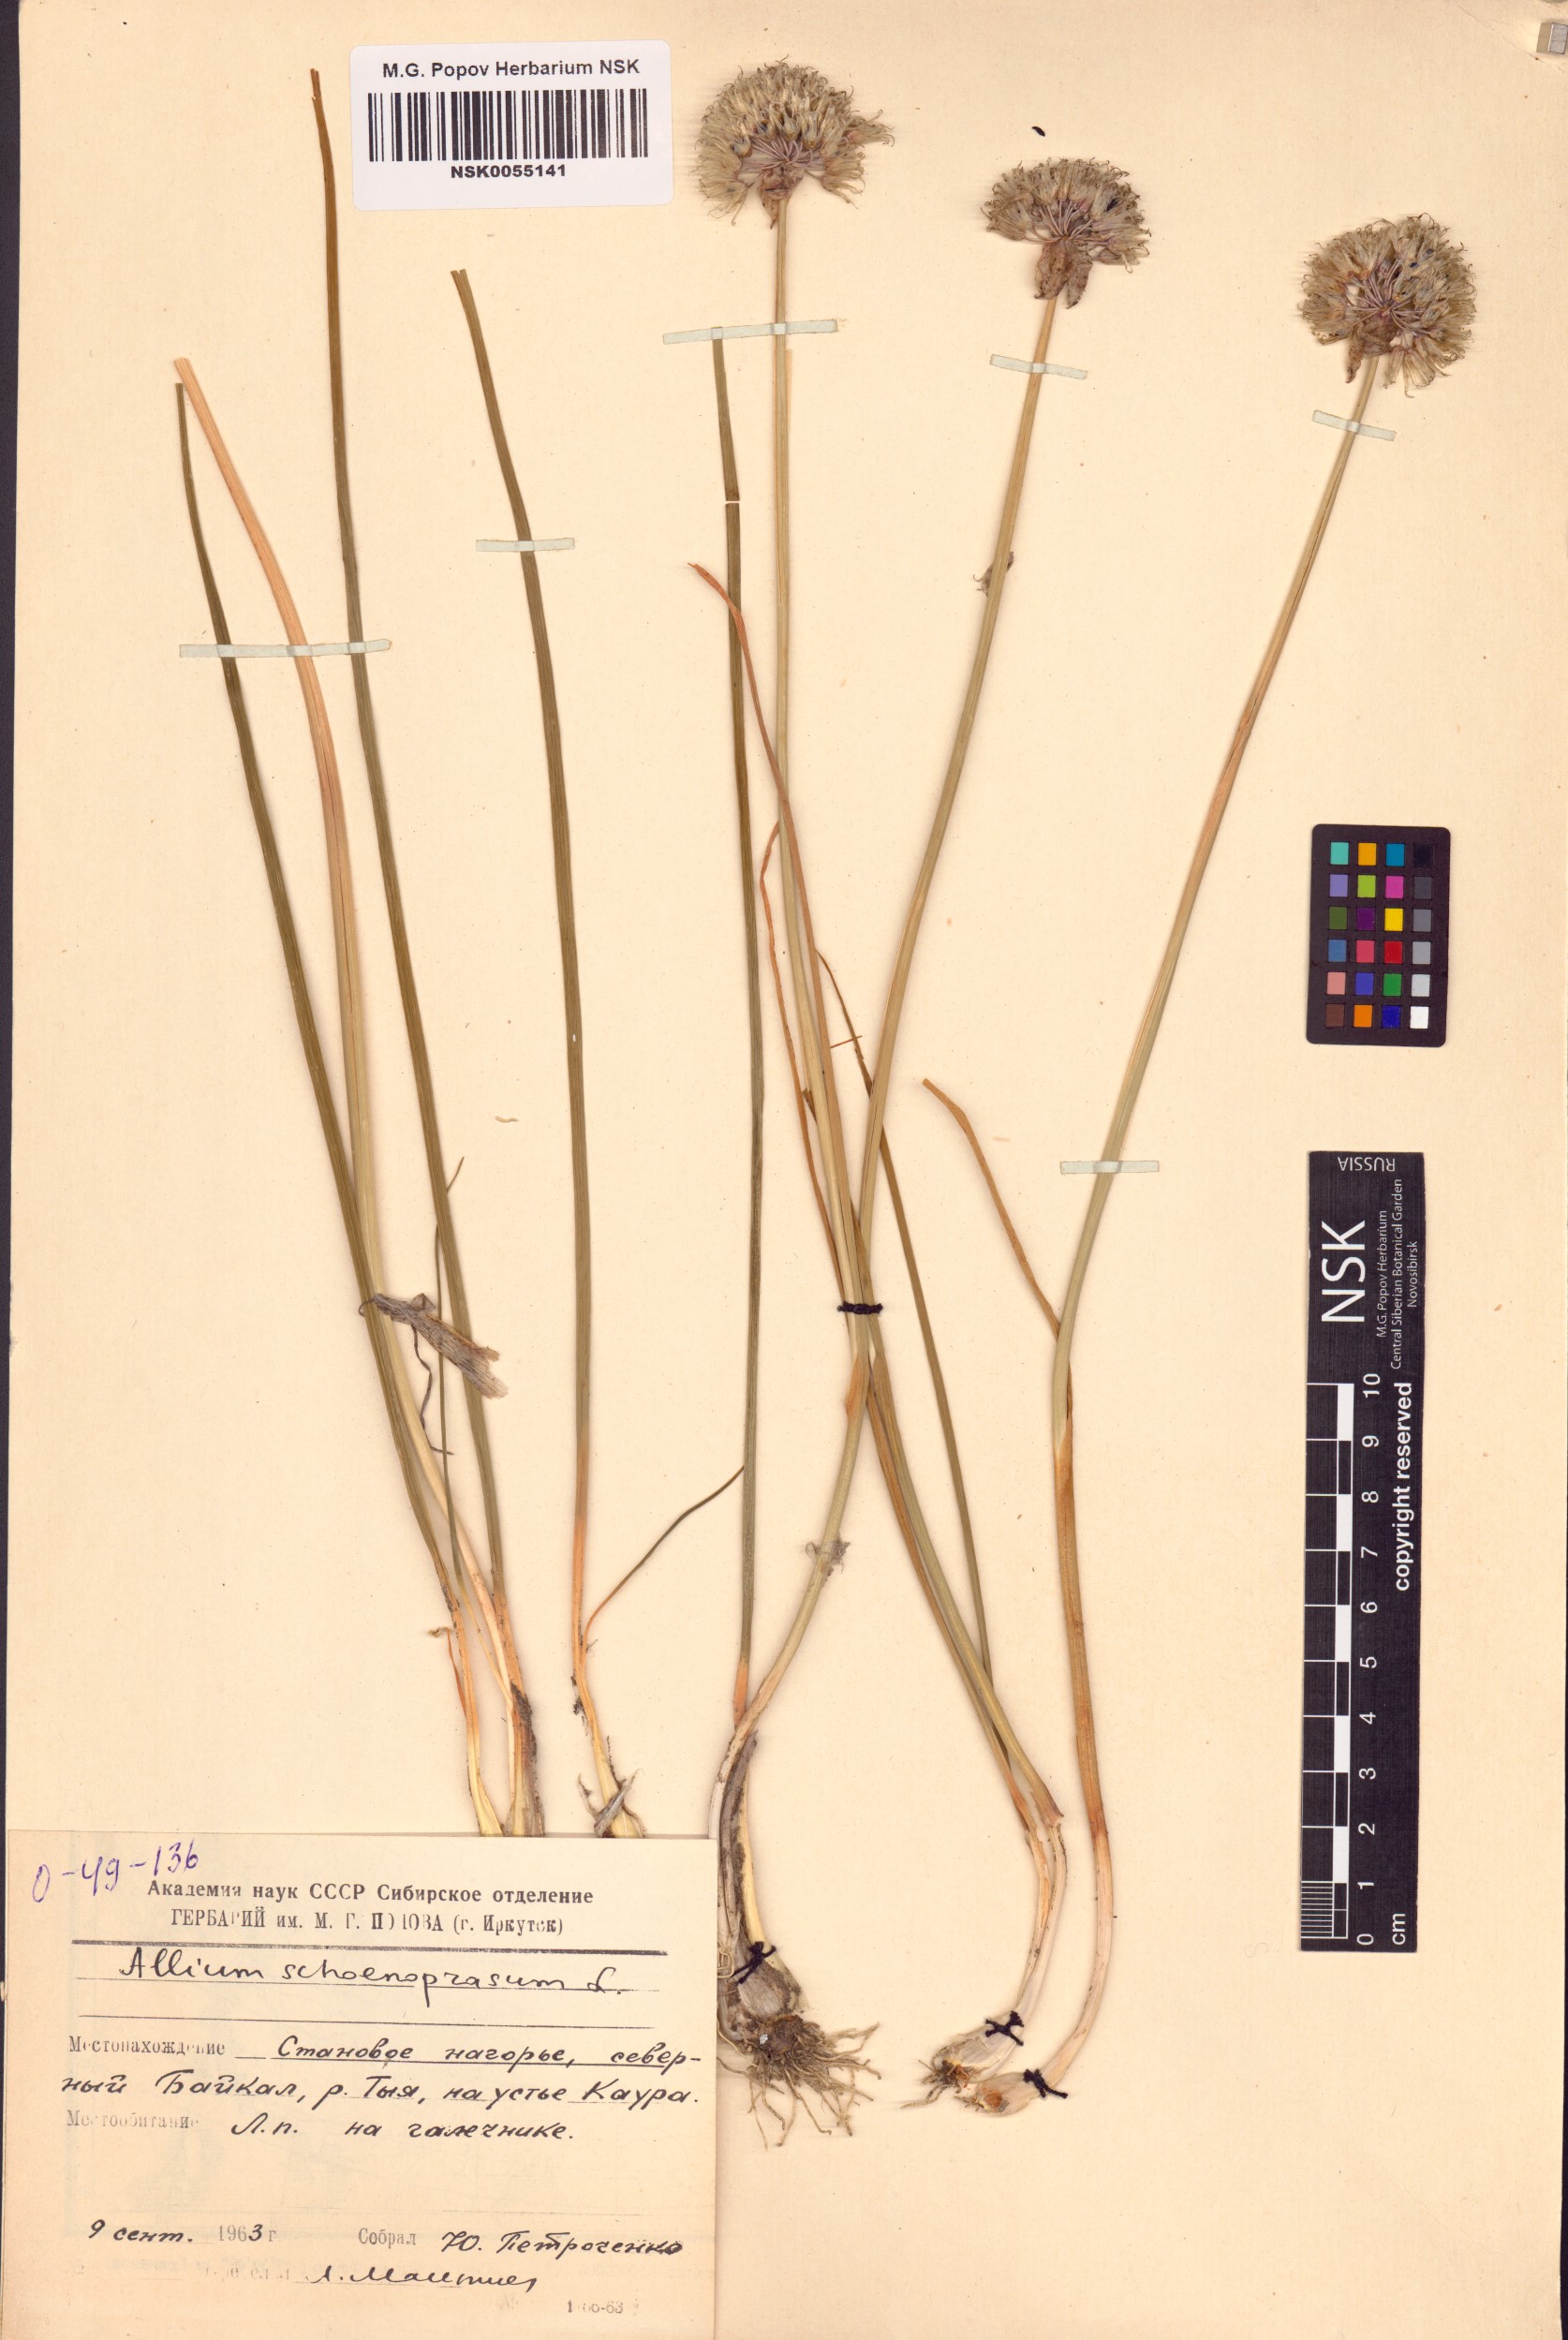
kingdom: Plantae
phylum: Tracheophyta
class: Liliopsida
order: Asparagales
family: Amaryllidaceae
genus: Allium
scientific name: Allium schoenoprasum
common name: Chives
